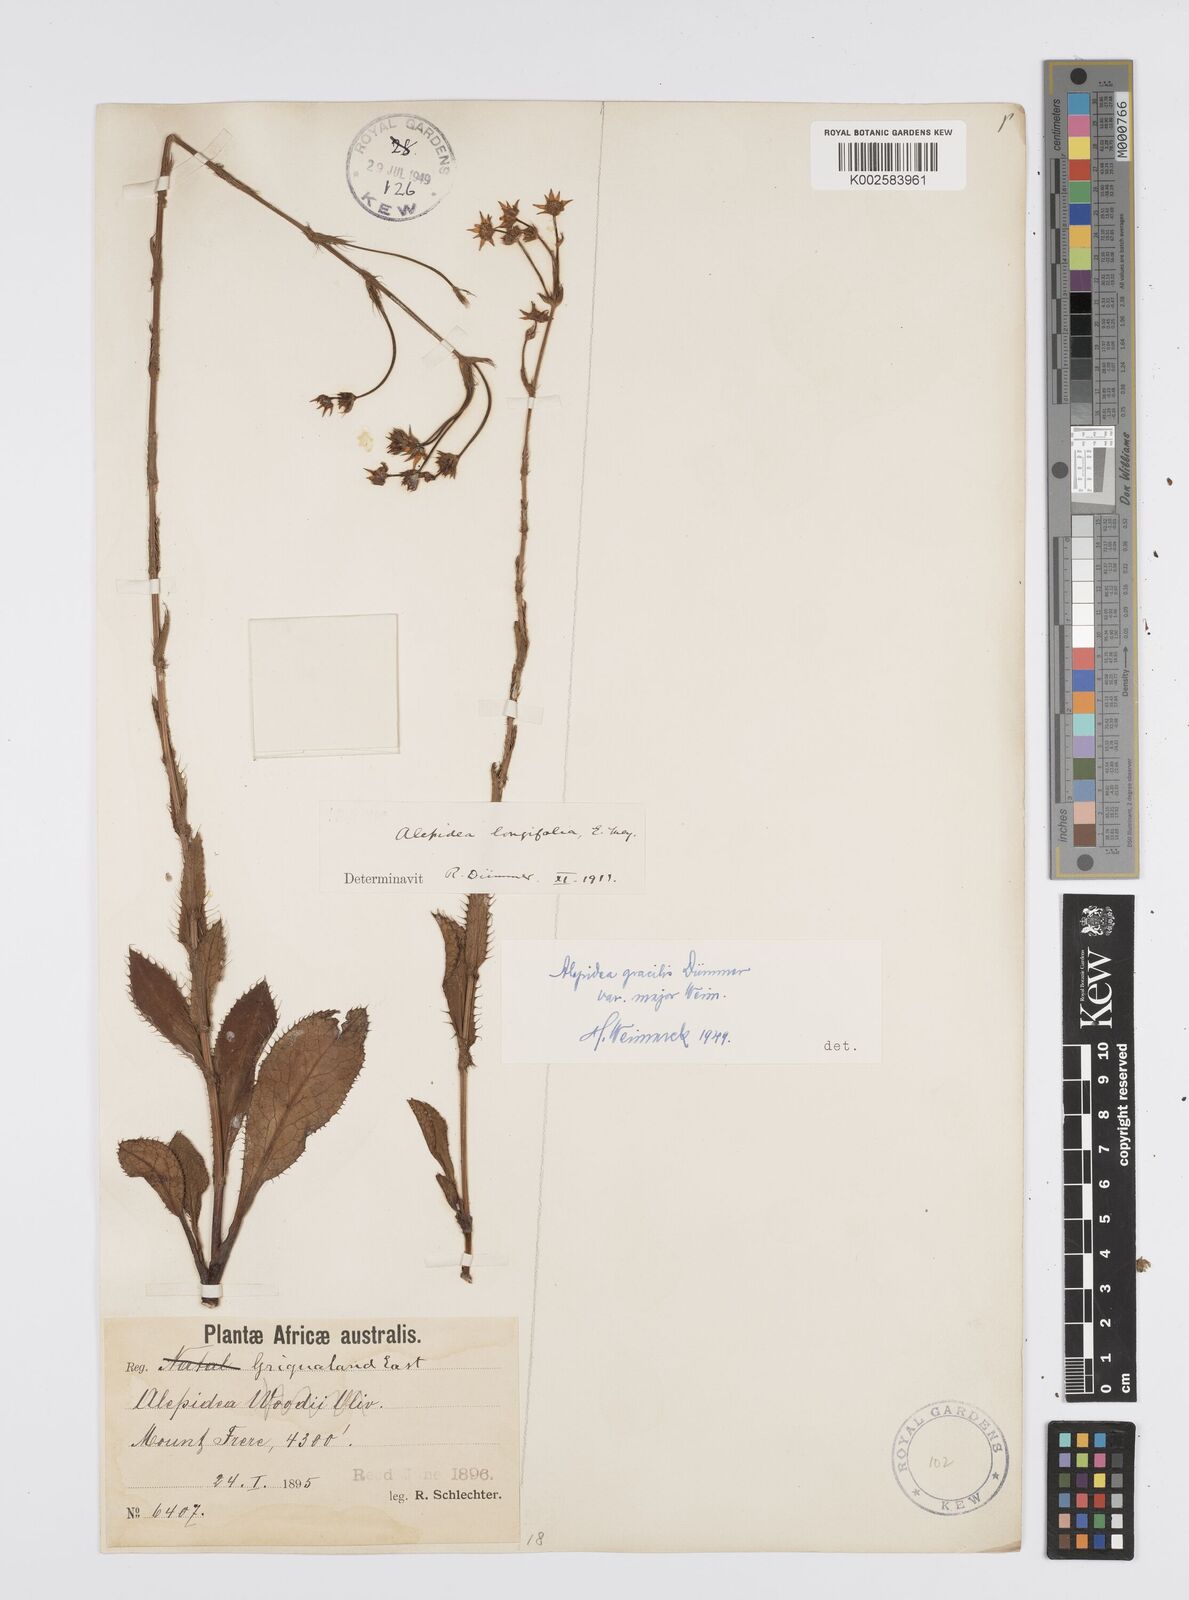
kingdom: Plantae
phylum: Tracheophyta
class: Magnoliopsida
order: Apiales
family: Apiaceae
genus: Alepidea
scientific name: Alepidea
